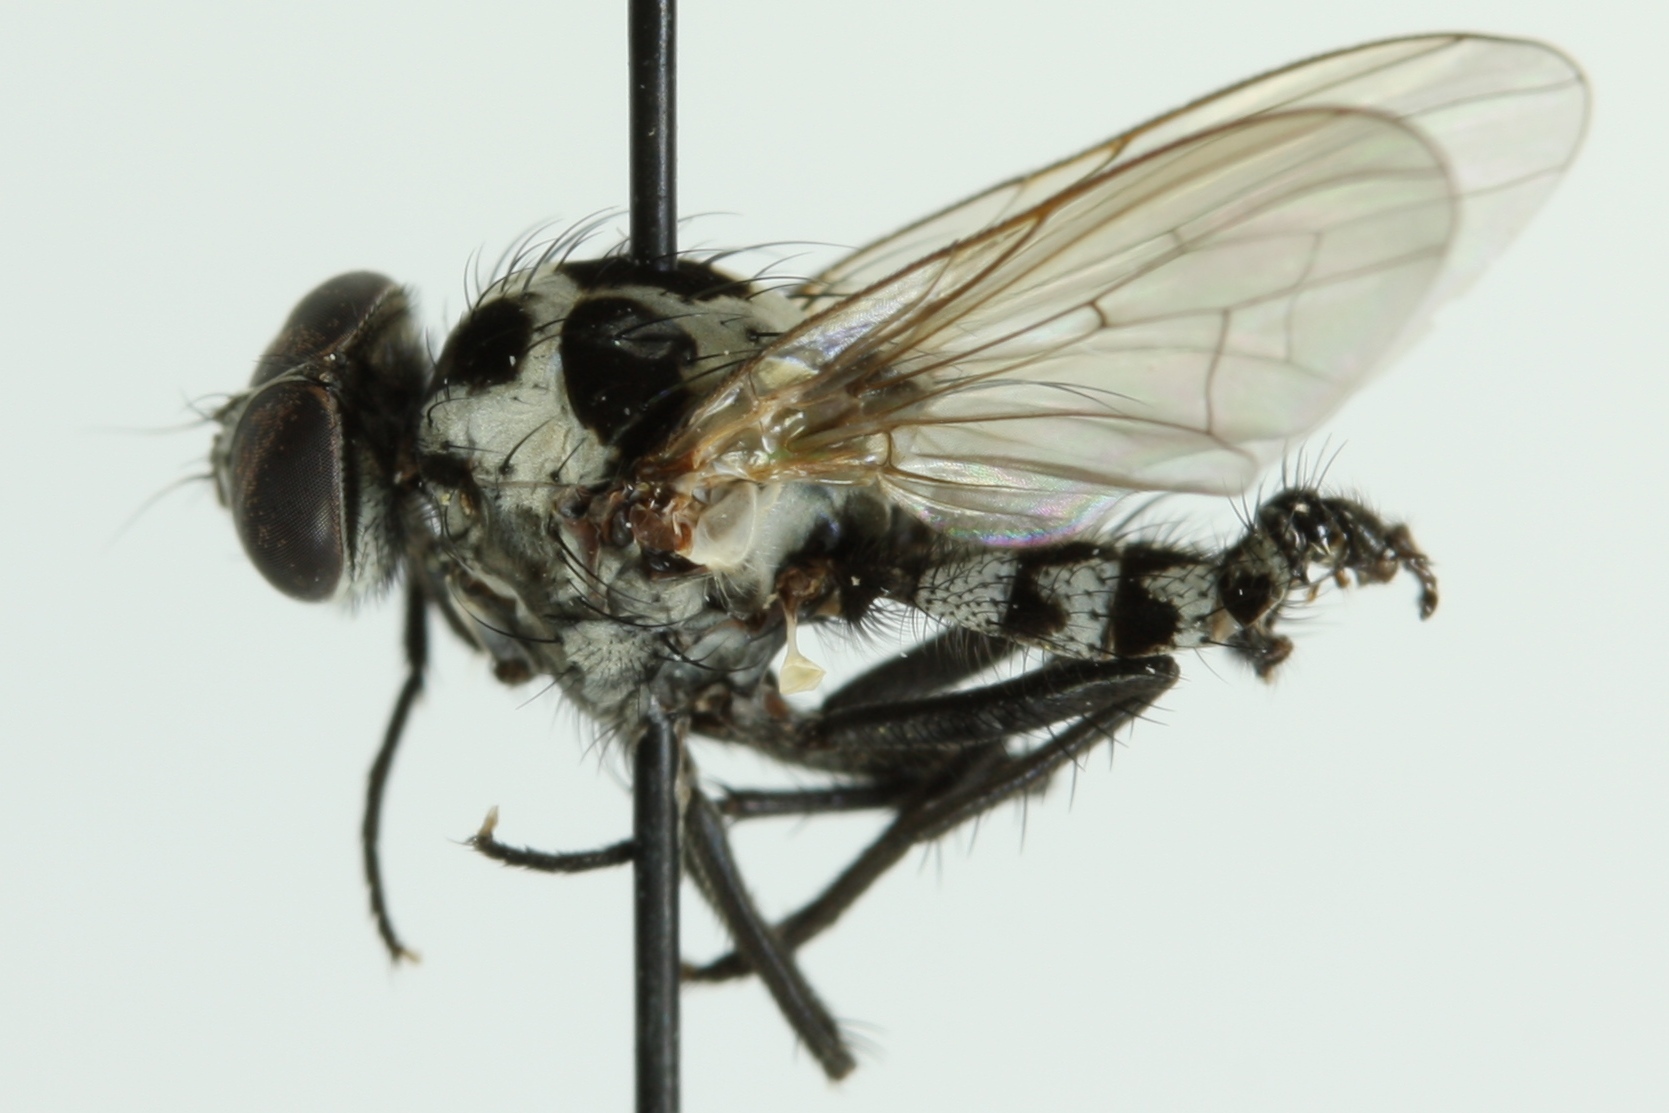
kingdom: Animalia
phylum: Arthropoda
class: Insecta
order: Diptera
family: Anthomyiidae
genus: Anthomyia
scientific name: Anthomyia pluvialis
